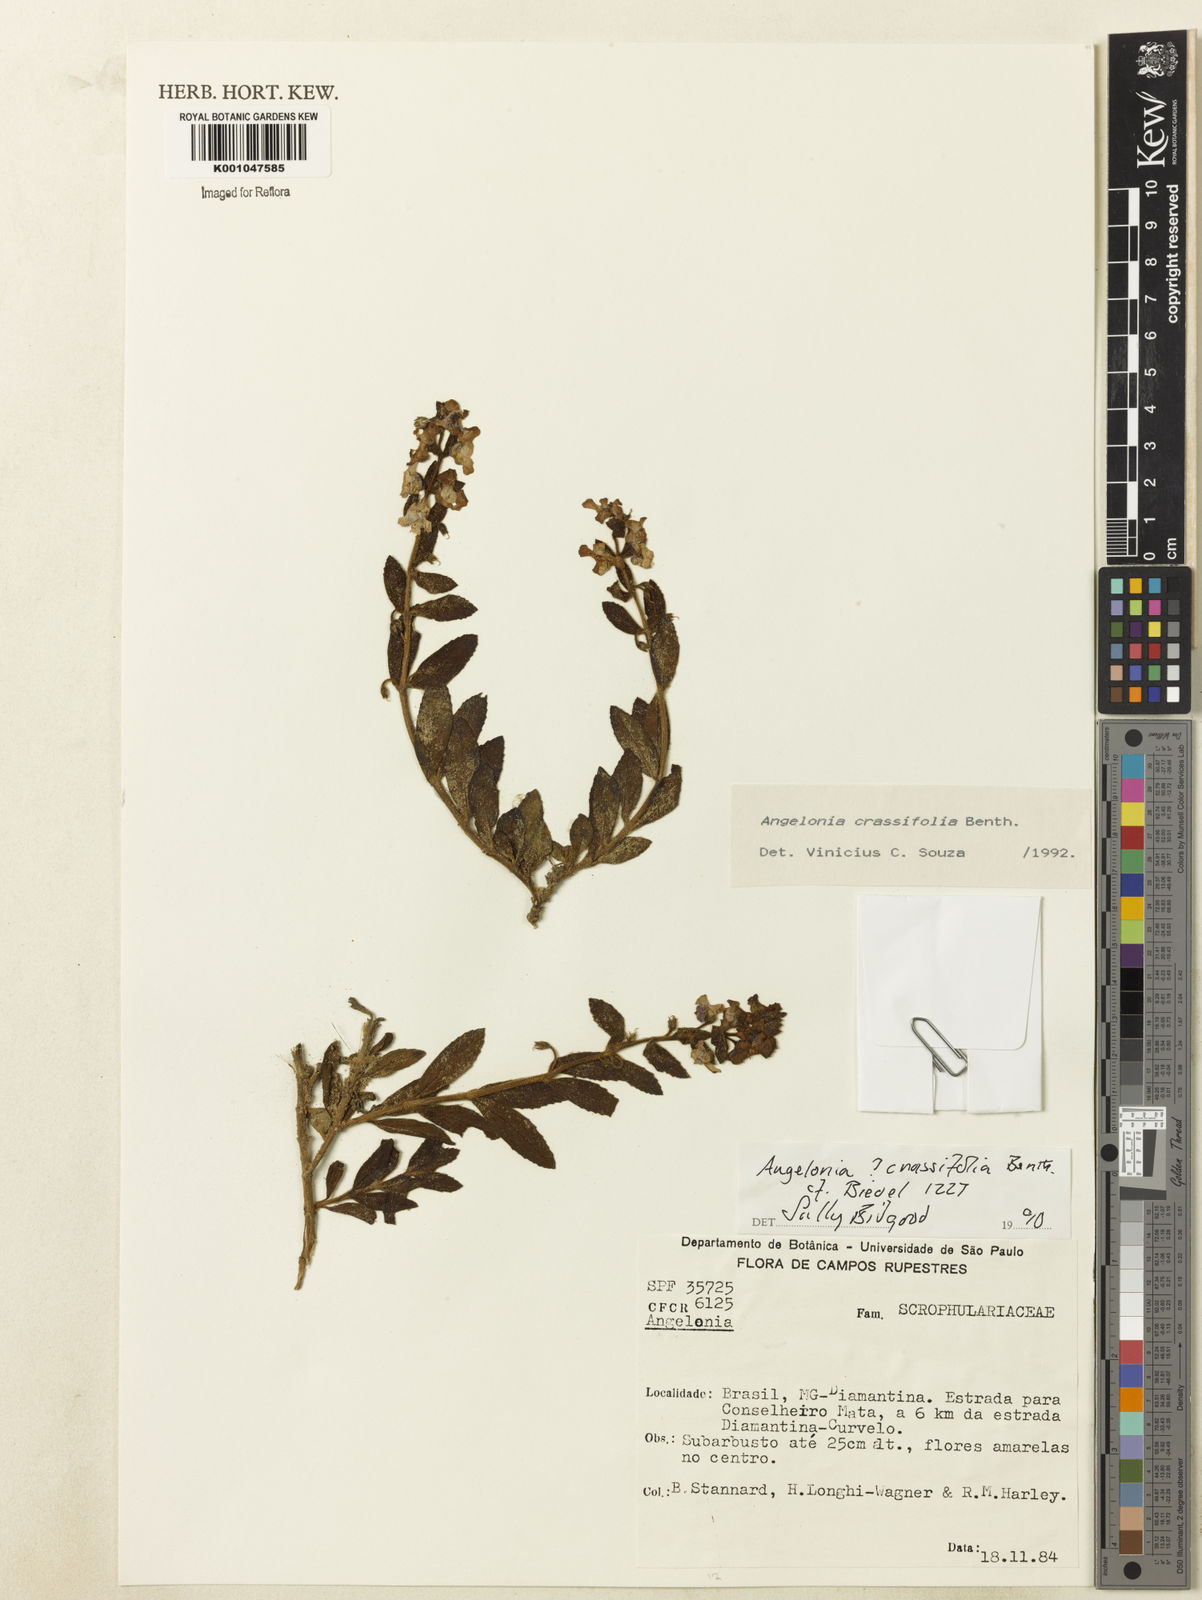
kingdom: Plantae
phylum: Tracheophyta
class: Magnoliopsida
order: Lamiales
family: Plantaginaceae
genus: Angelonia
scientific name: Angelonia crassifolia
